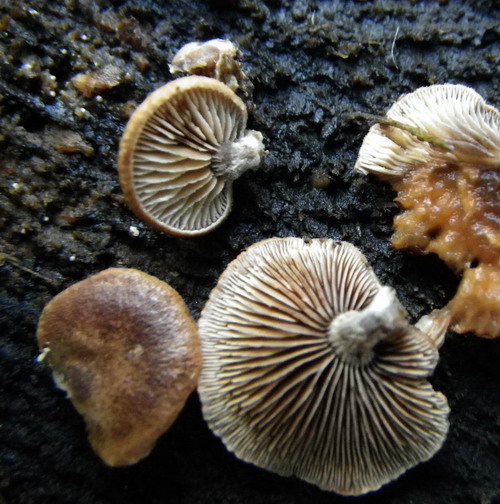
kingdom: Fungi
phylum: Basidiomycota
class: Agaricomycetes
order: Agaricales
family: Strophariaceae
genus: Deconica
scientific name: Deconica horizontalis
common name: ved-stråhat
